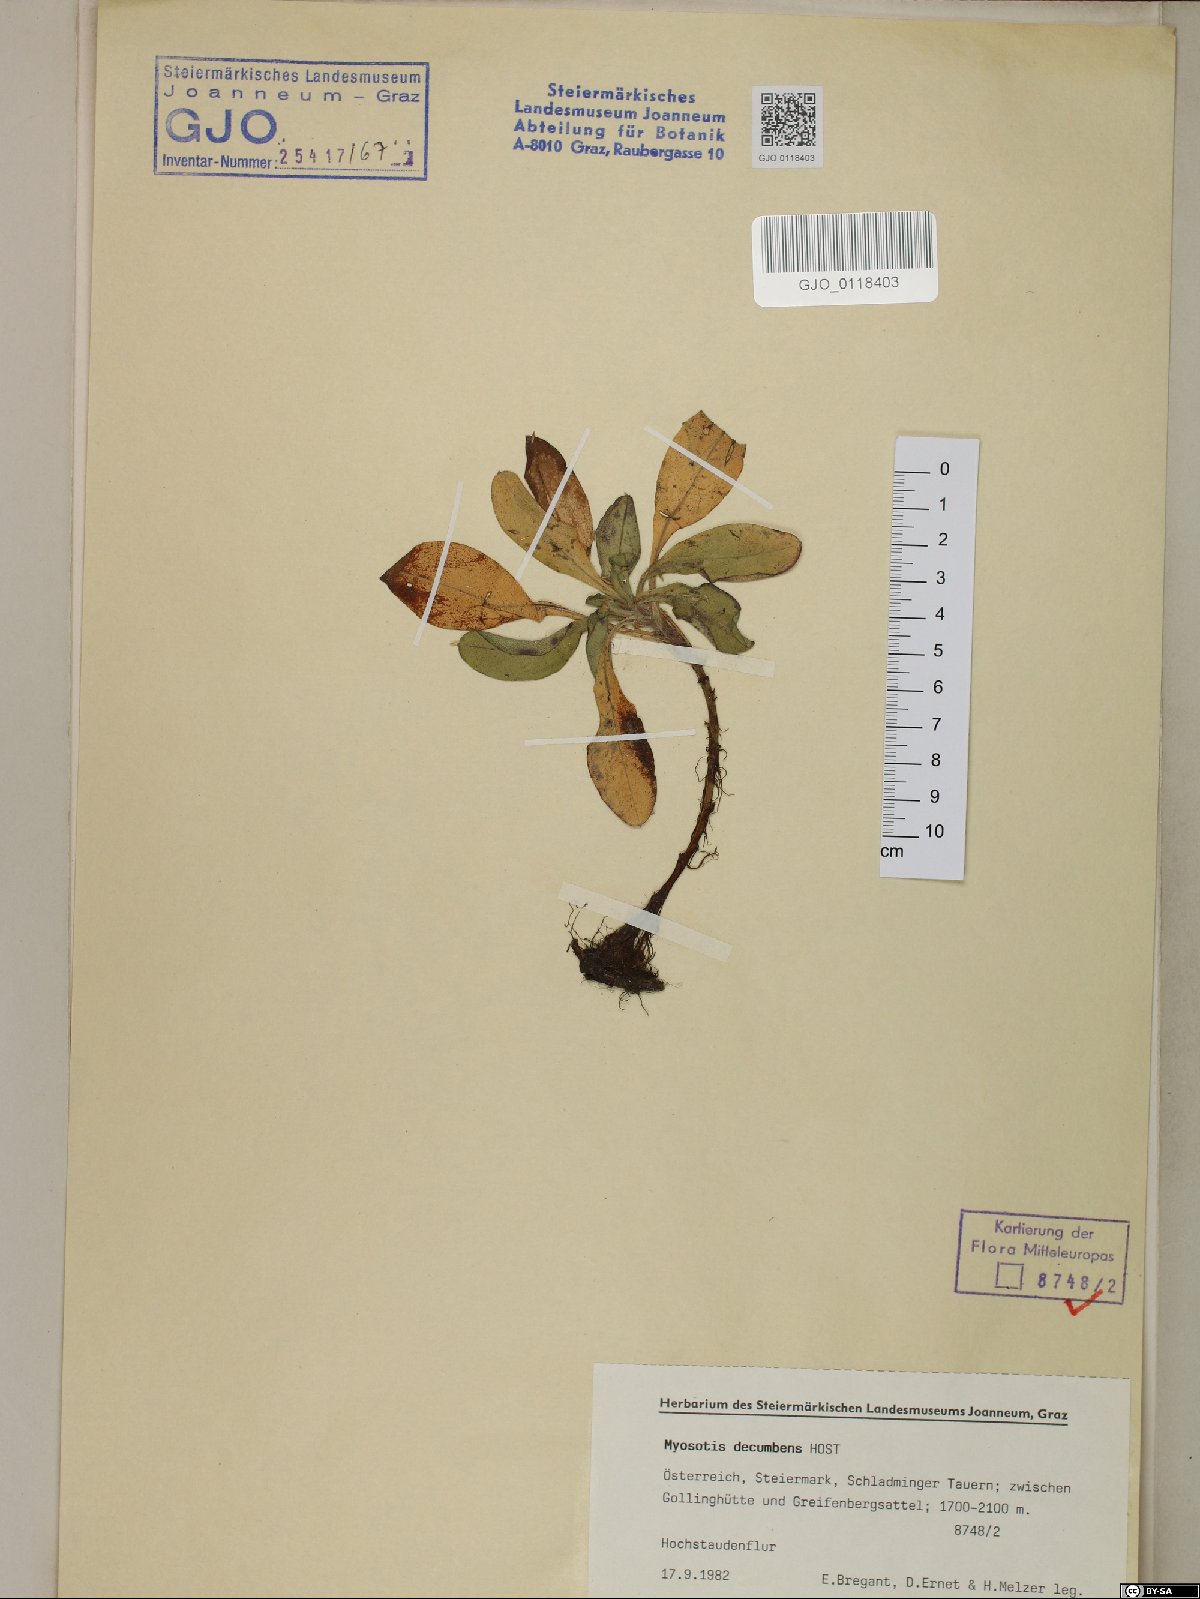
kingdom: Plantae
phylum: Tracheophyta
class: Magnoliopsida
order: Boraginales
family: Boraginaceae
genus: Myosotis
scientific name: Myosotis decumbens
